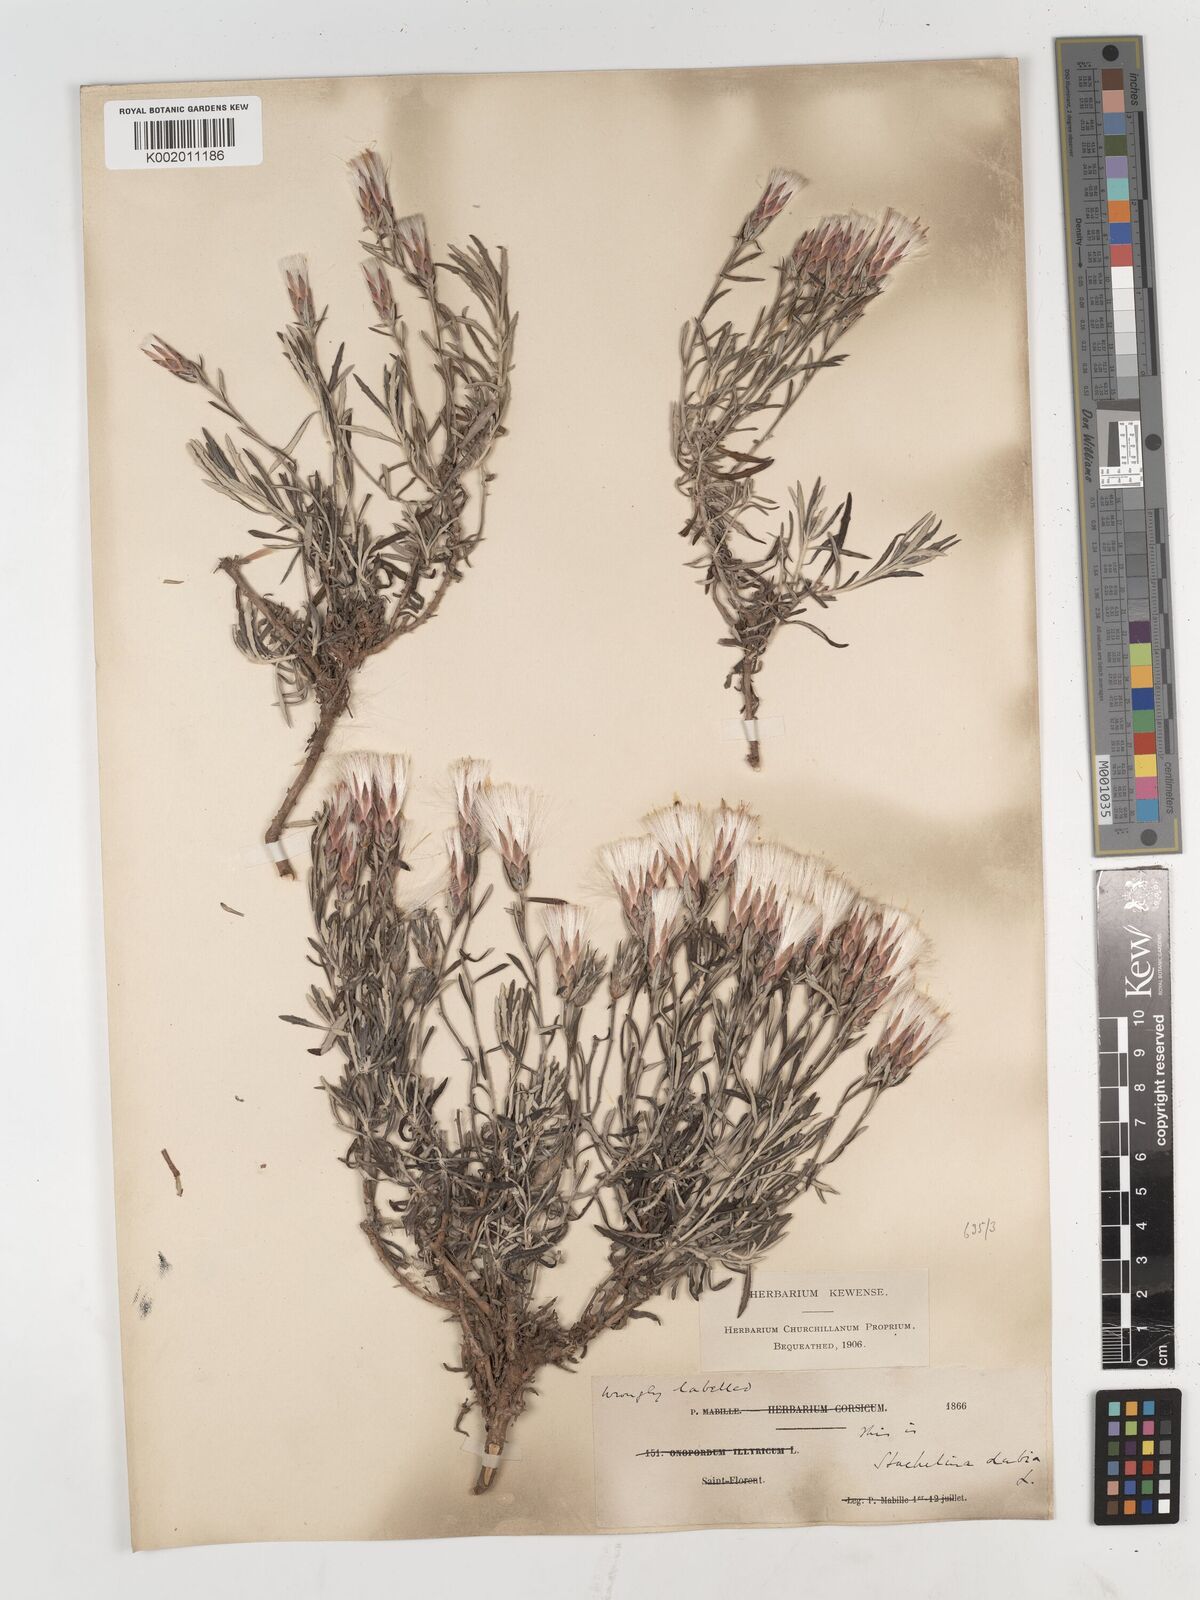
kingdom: Plantae
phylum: Tracheophyta
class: Magnoliopsida
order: Asterales
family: Asteraceae
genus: Staehelina
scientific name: Staehelina dubia
